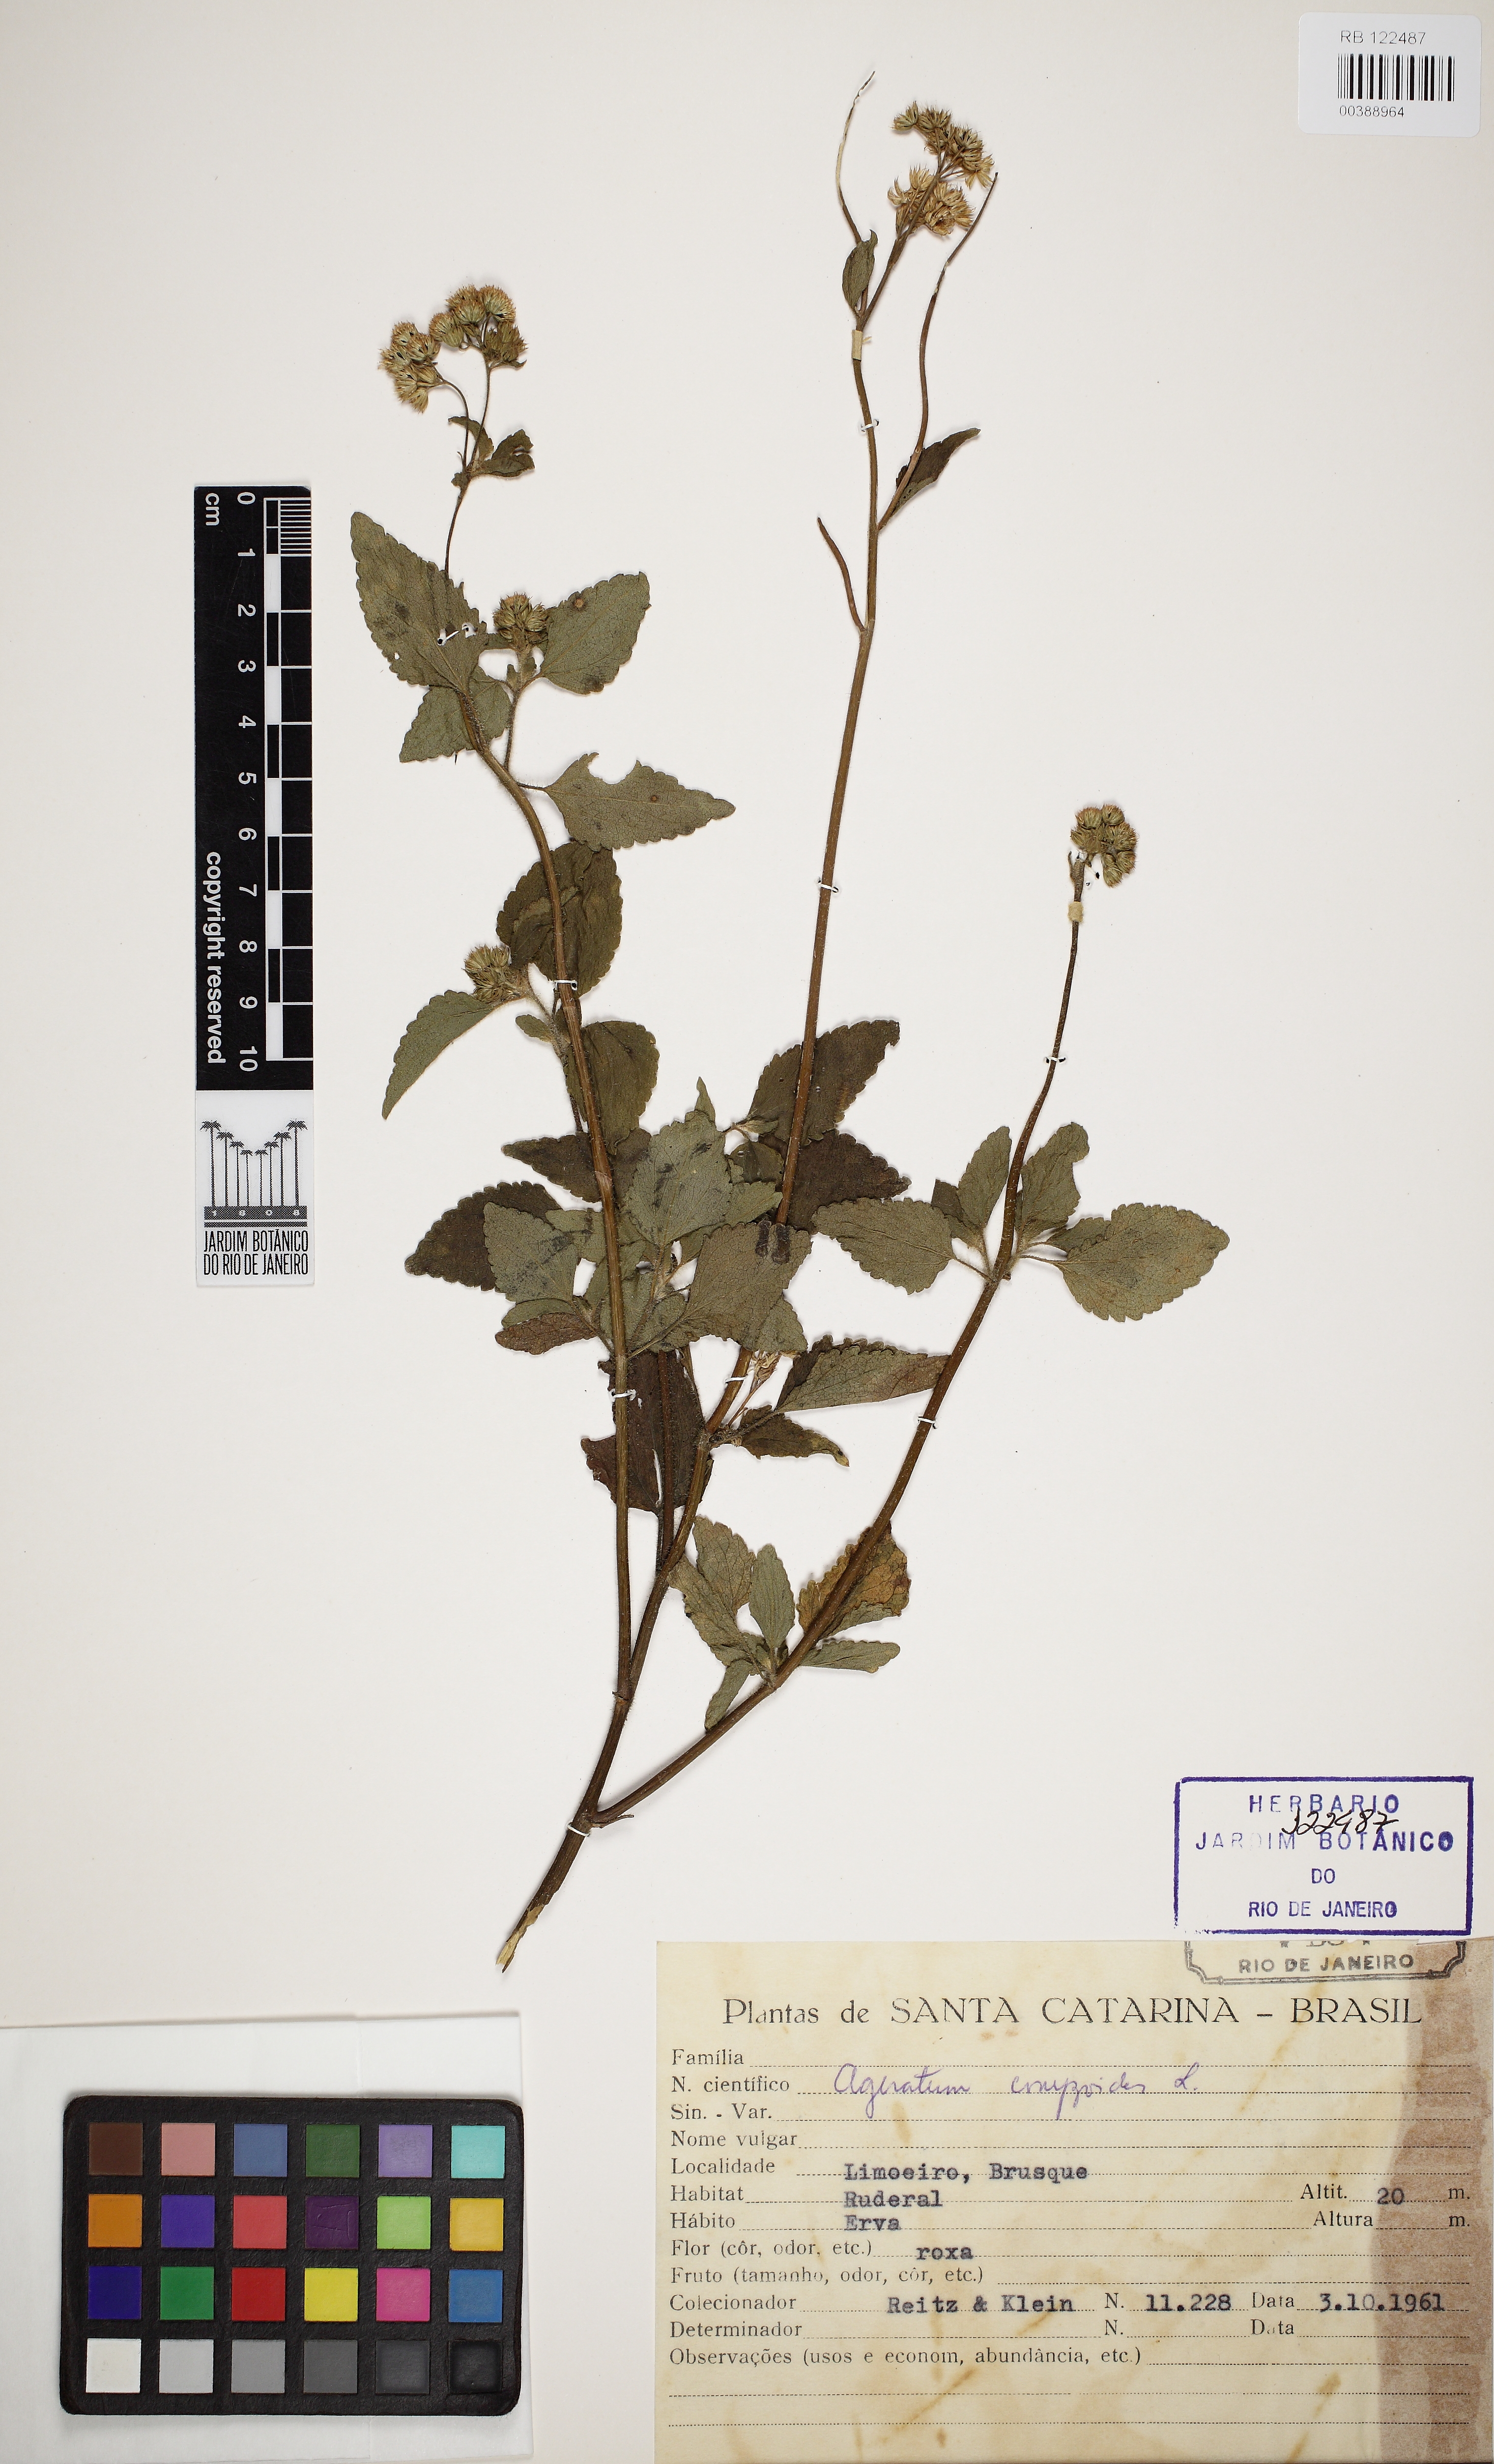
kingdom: Plantae
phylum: Tracheophyta
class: Magnoliopsida
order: Asterales
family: Asteraceae
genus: Ageratum
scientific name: Ageratum conyzoides
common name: Tropical whiteweed
